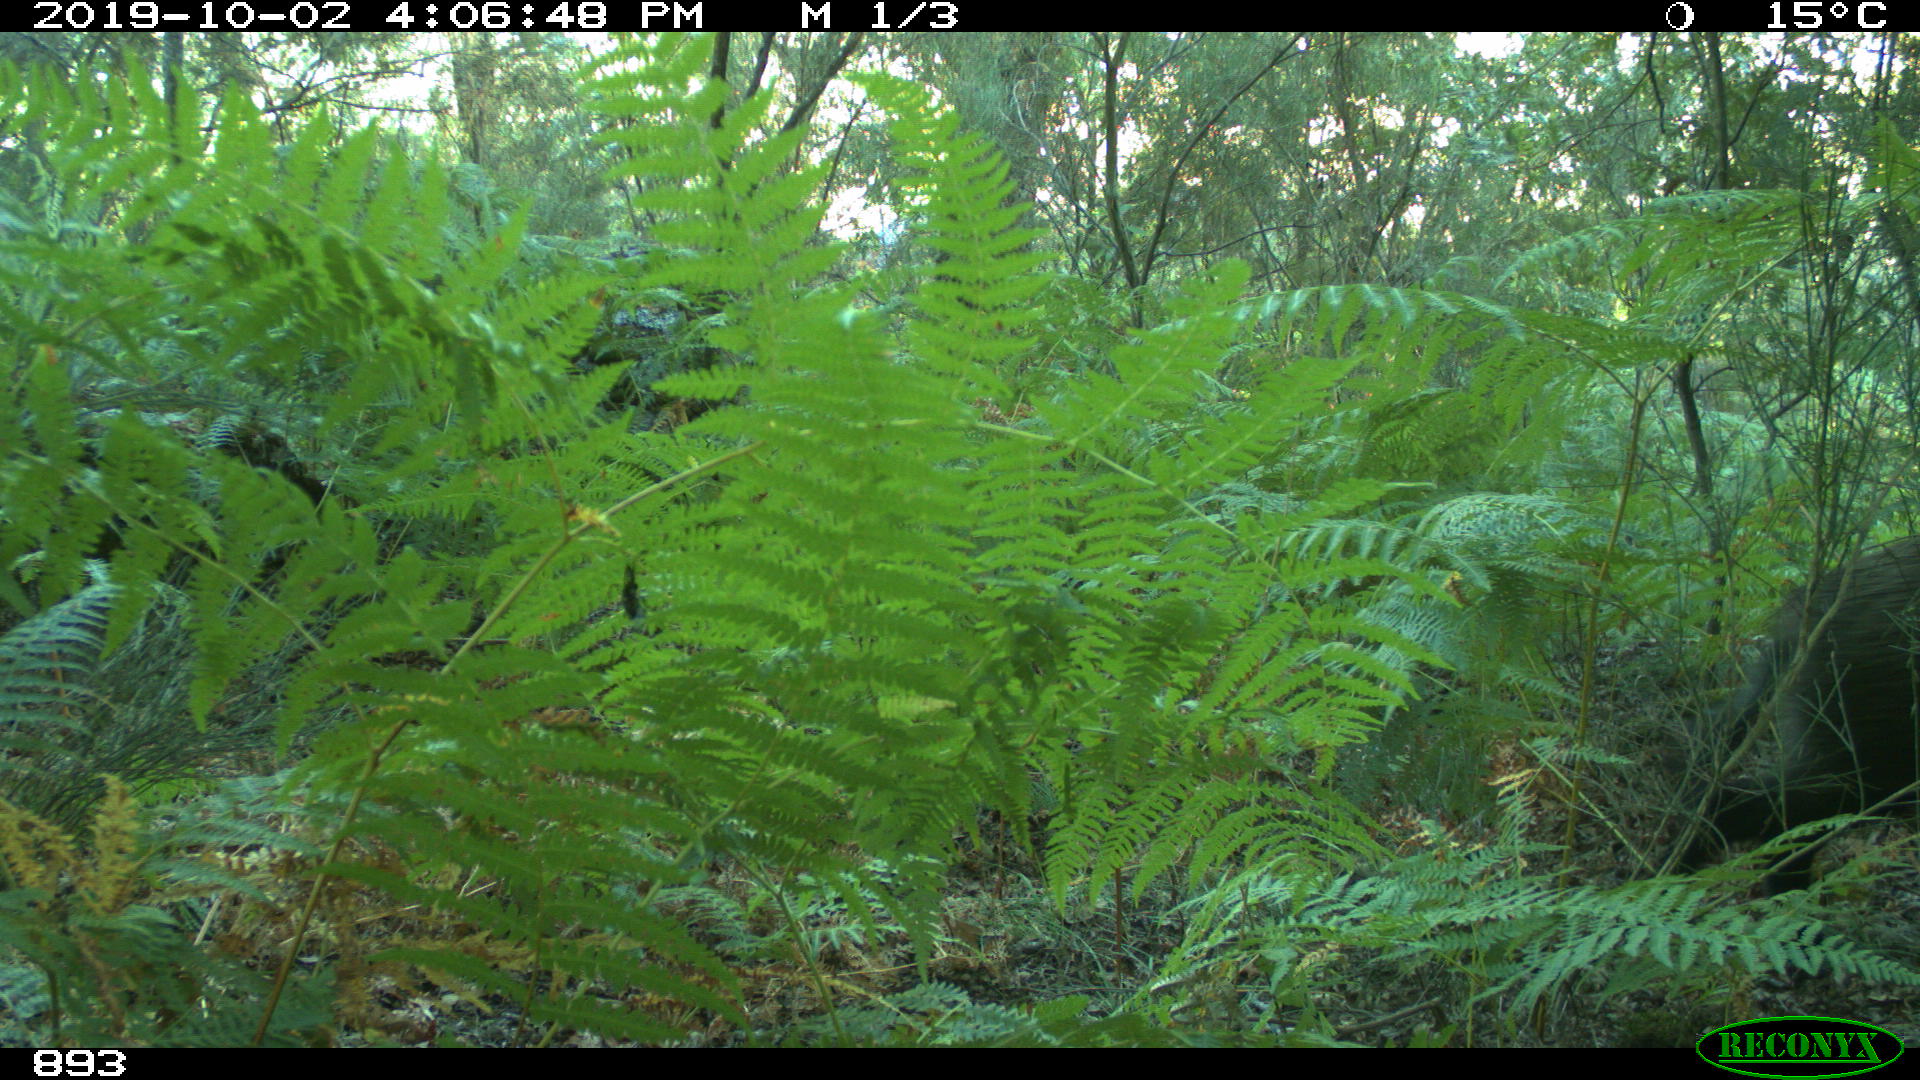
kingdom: Animalia
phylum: Chordata
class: Mammalia
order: Artiodactyla
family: Suidae
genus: Sus
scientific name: Sus scrofa
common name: Wild boar
